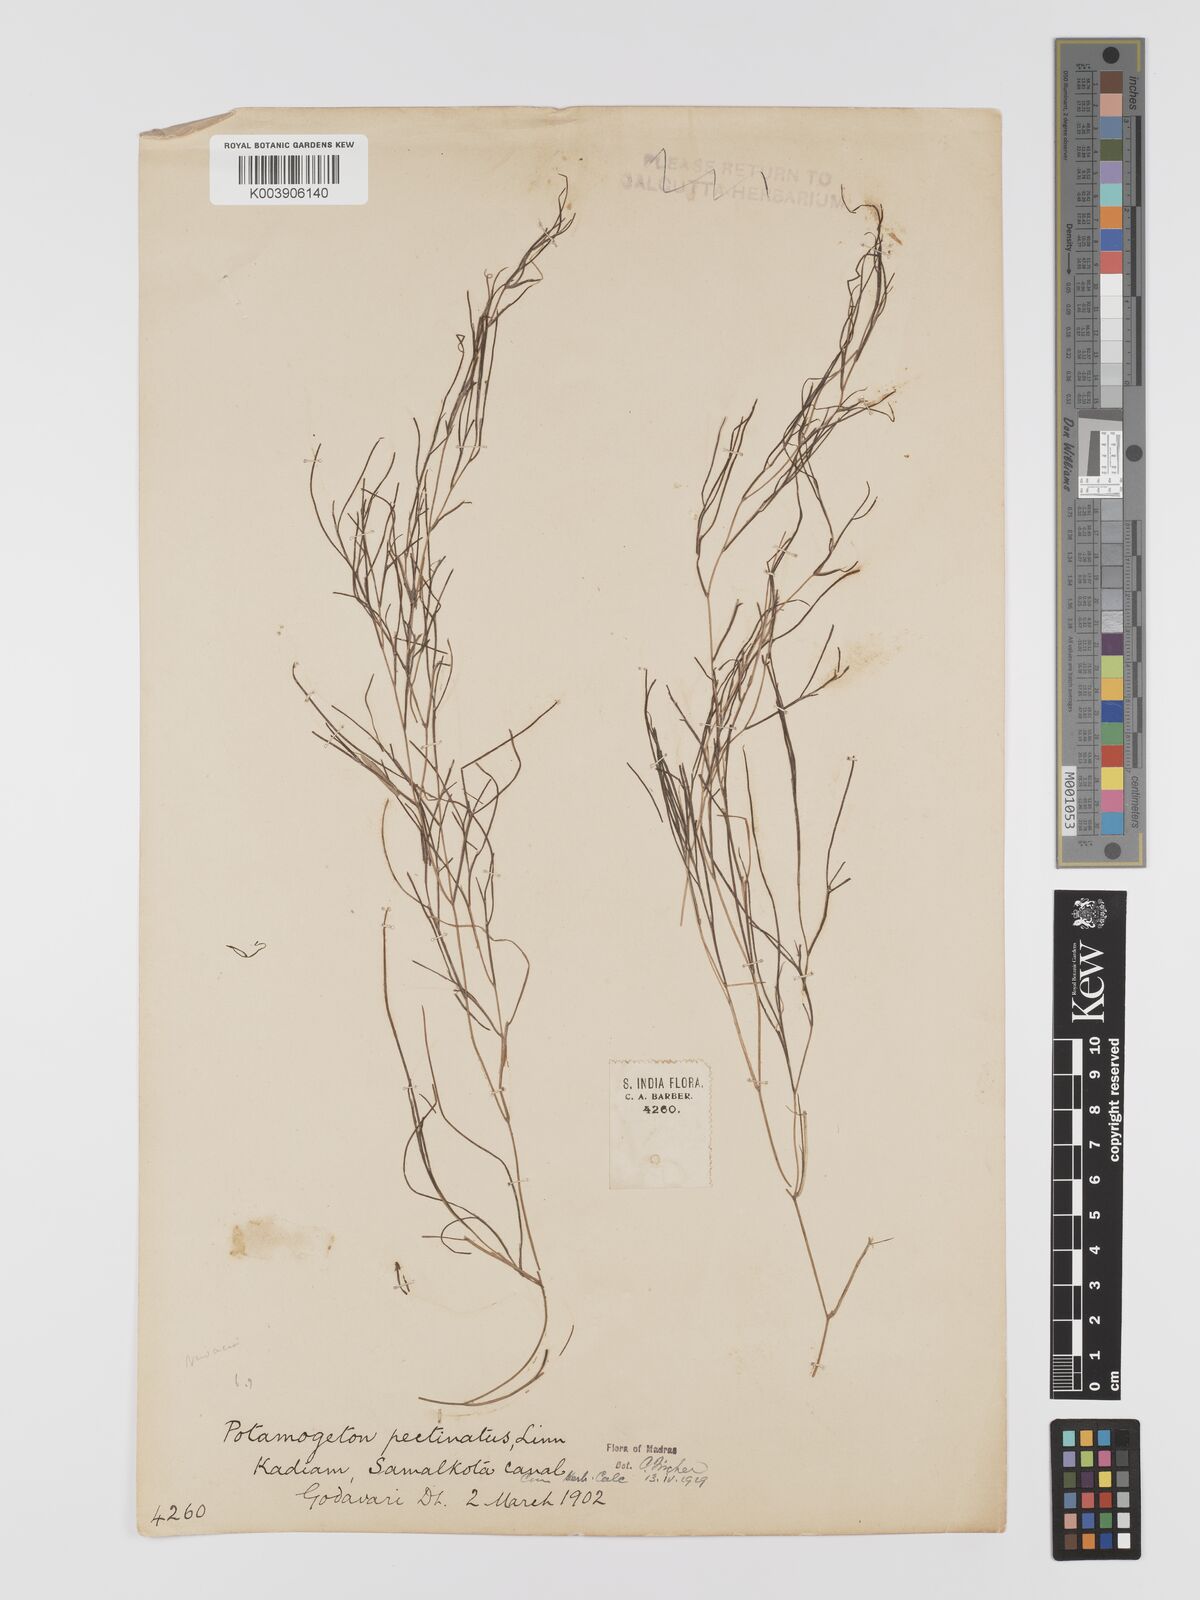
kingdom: Plantae
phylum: Tracheophyta
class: Liliopsida
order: Alismatales
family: Potamogetonaceae
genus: Stuckenia
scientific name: Stuckenia pectinata
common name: Sago pondweed
